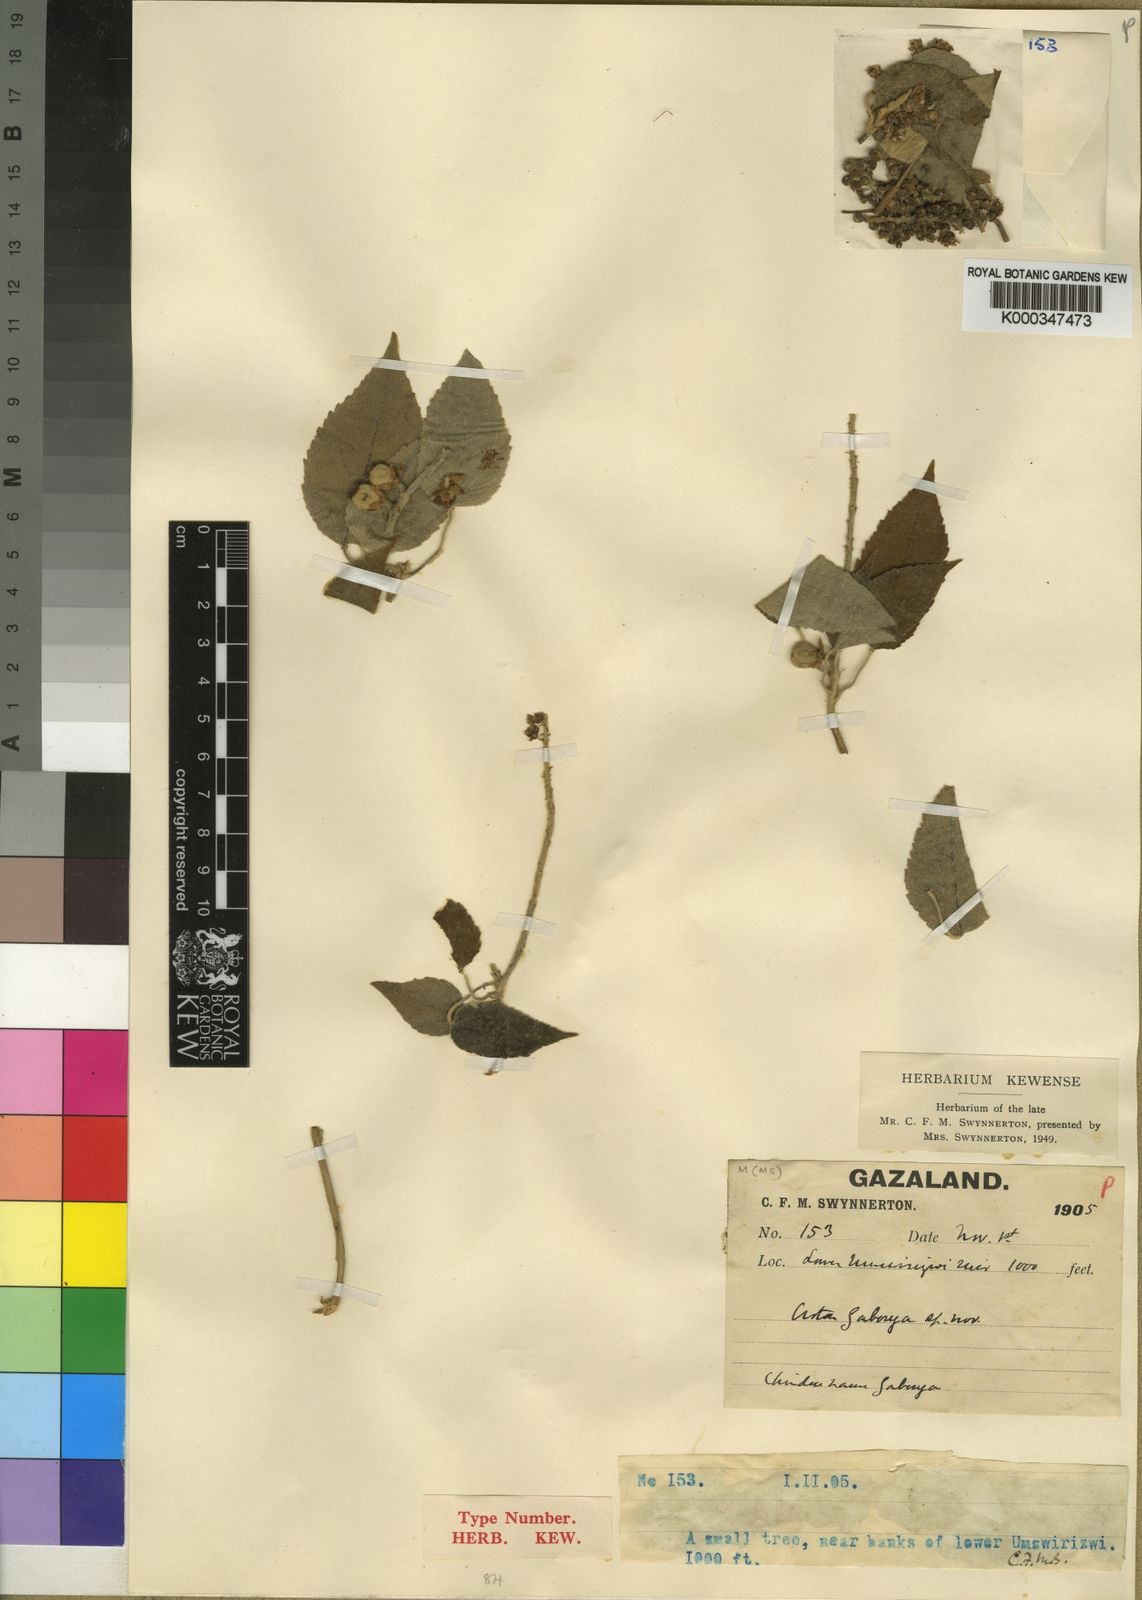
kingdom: Plantae
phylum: Tracheophyta
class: Magnoliopsida
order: Malpighiales
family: Euphorbiaceae
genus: Croton
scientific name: Croton
